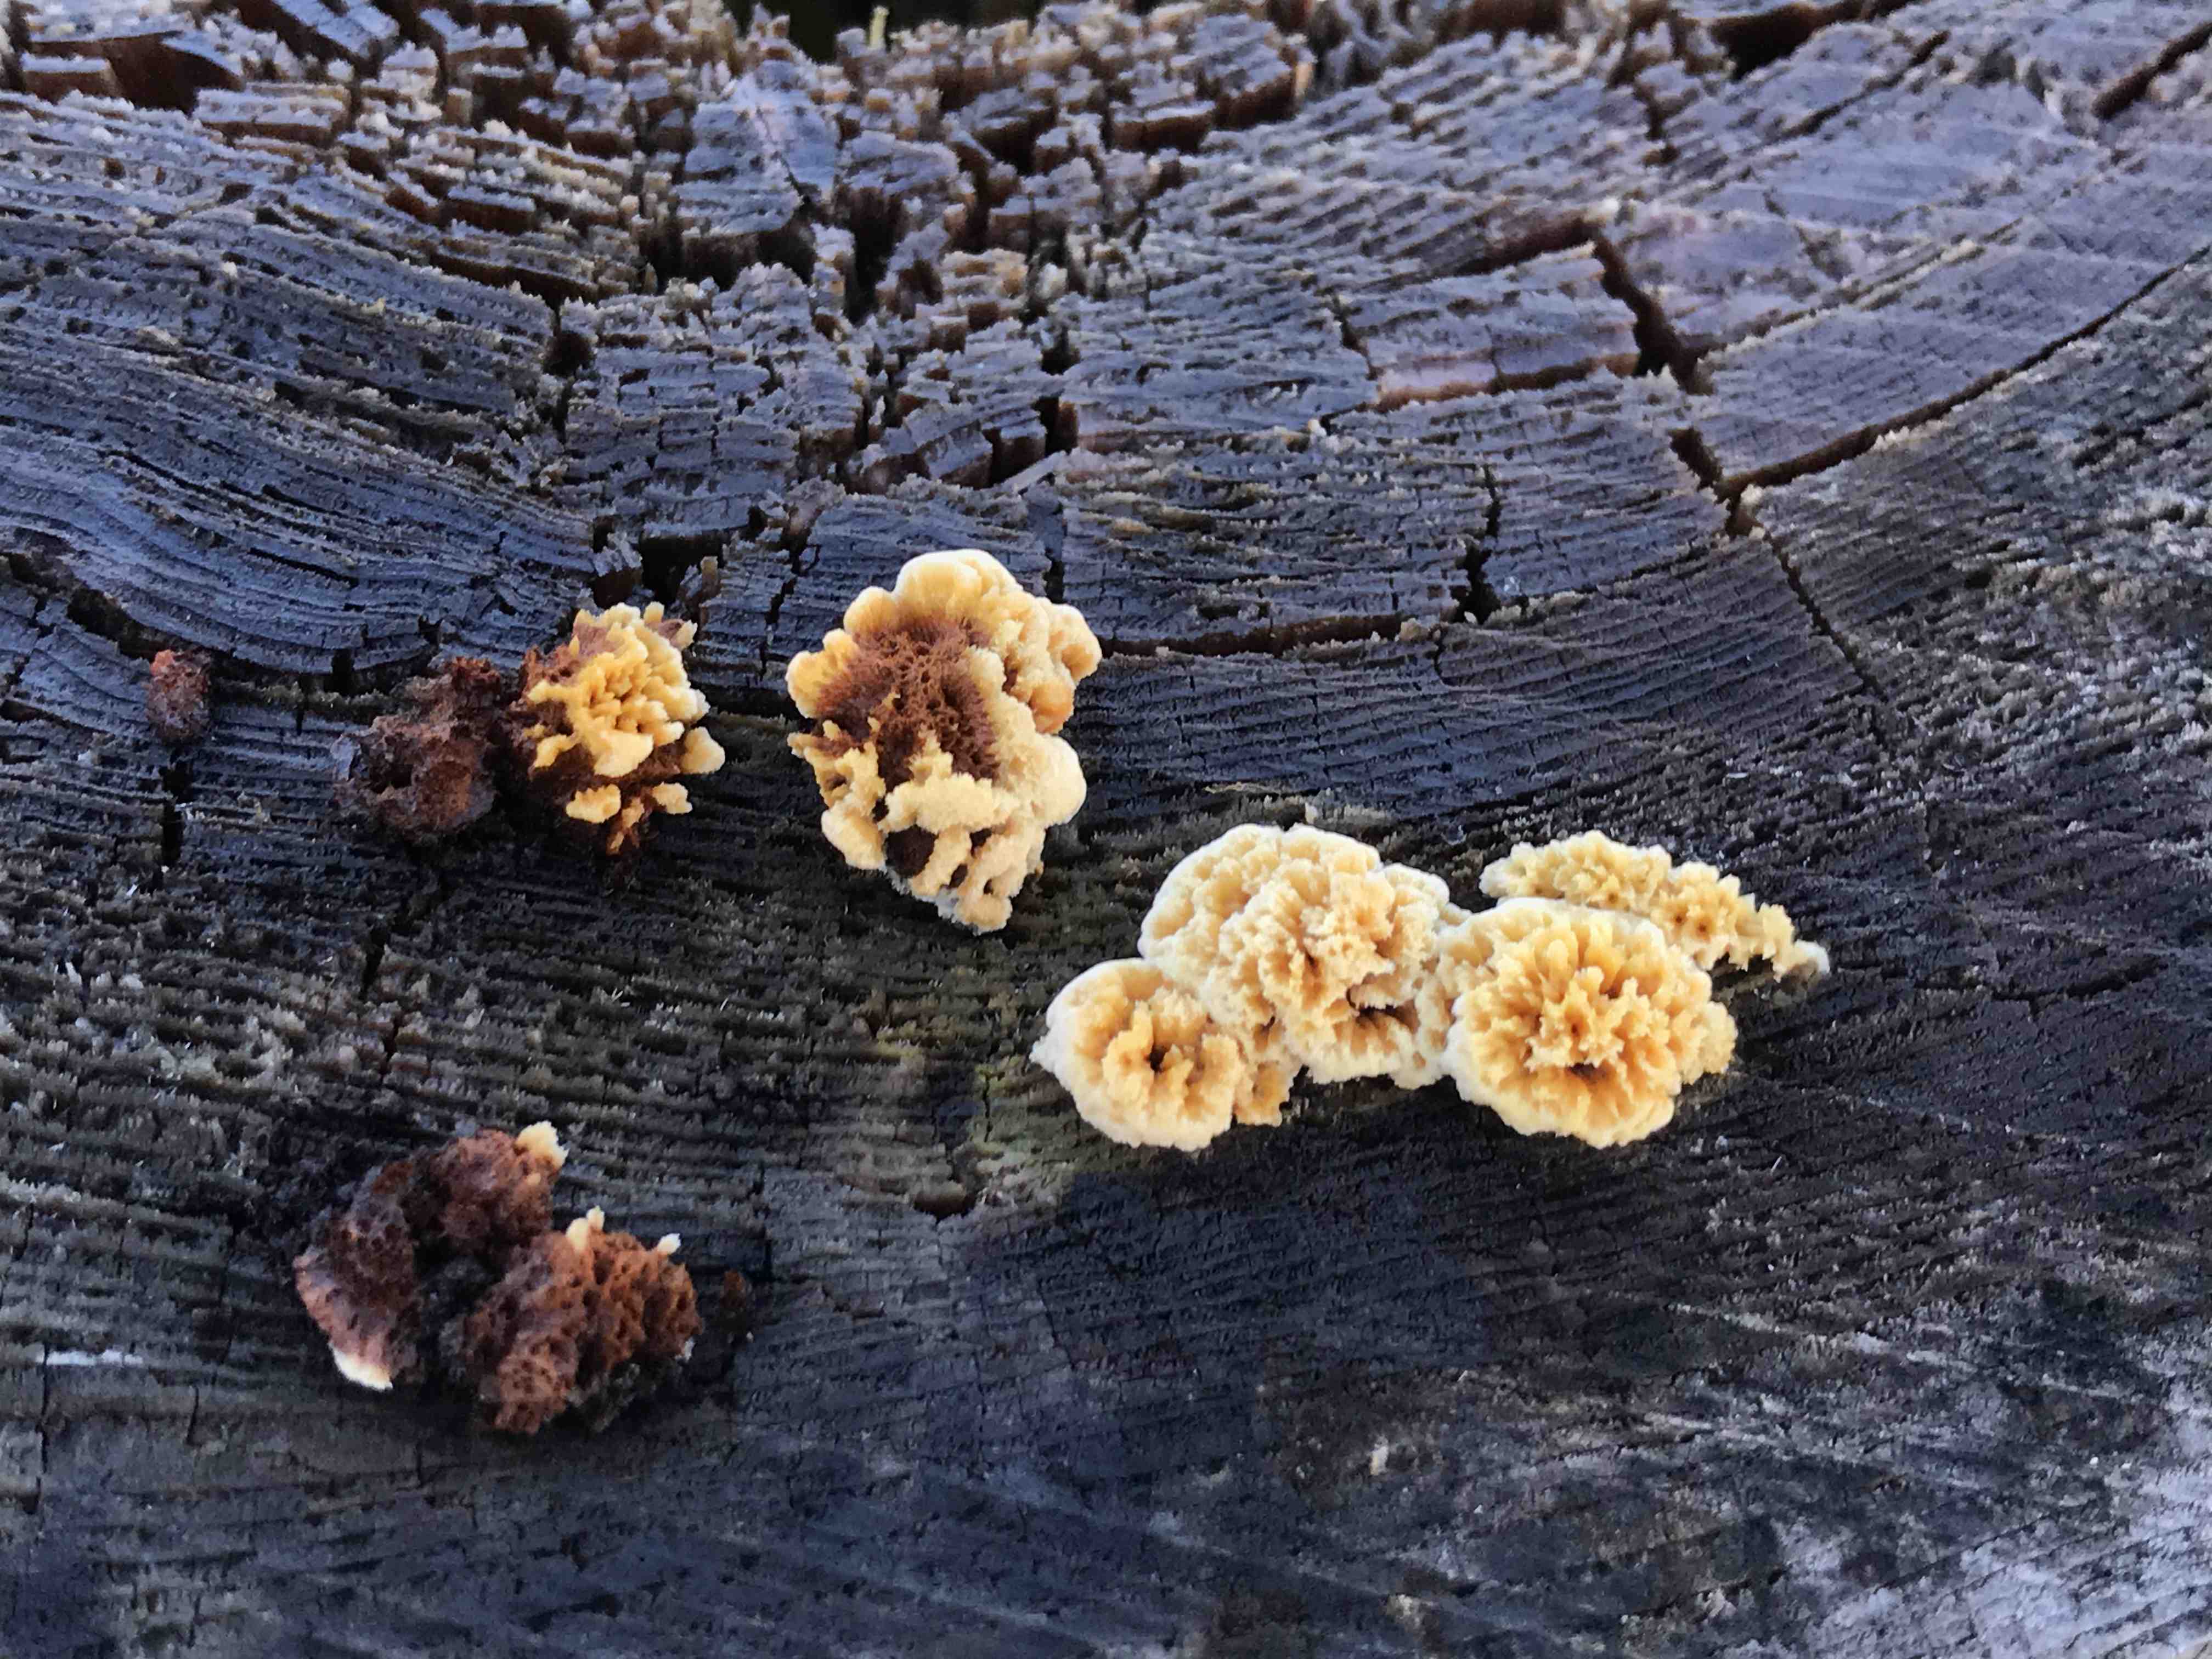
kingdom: Fungi
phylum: Basidiomycota
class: Agaricomycetes
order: Gloeophyllales
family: Gloeophyllaceae
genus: Gloeophyllum
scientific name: Gloeophyllum
